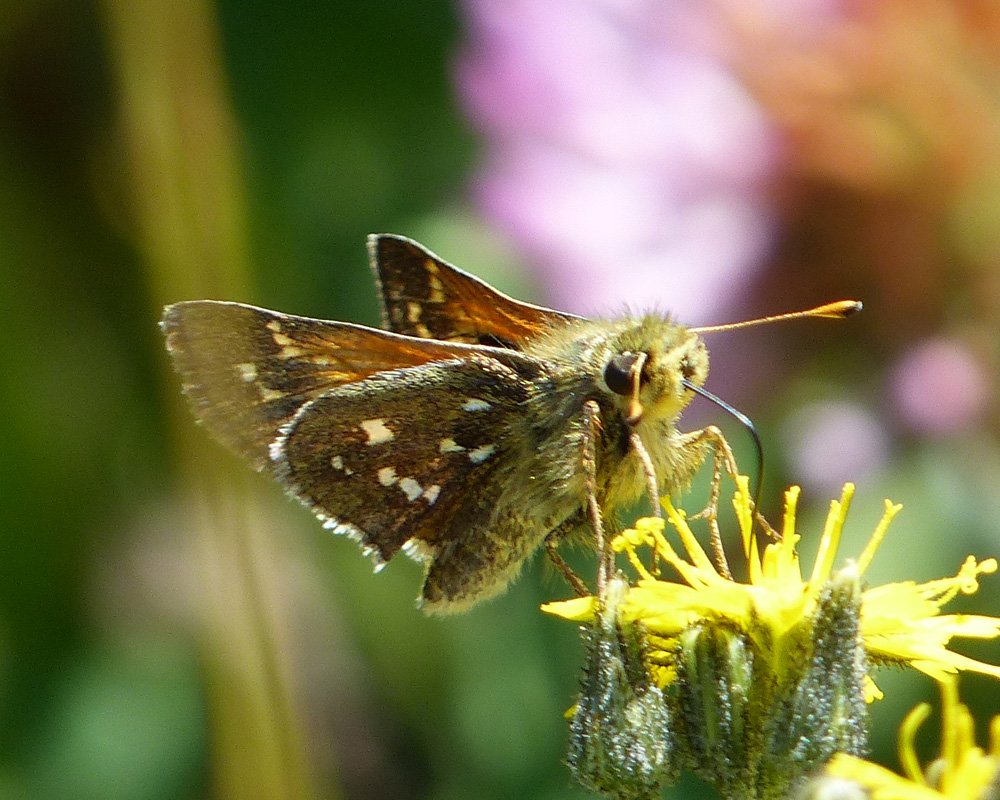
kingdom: Animalia
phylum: Arthropoda
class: Insecta
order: Lepidoptera
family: Hesperiidae
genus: Hesperia
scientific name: Hesperia comma
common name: Common Branded Skipper
